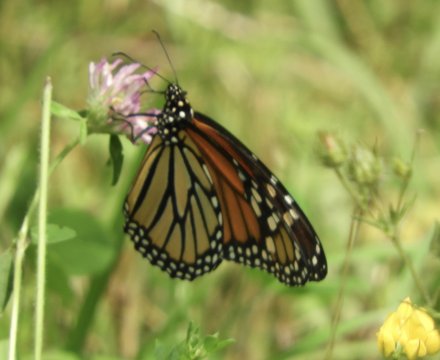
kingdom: Animalia
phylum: Arthropoda
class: Insecta
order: Lepidoptera
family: Nymphalidae
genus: Danaus
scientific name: Danaus plexippus
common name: Monarch
